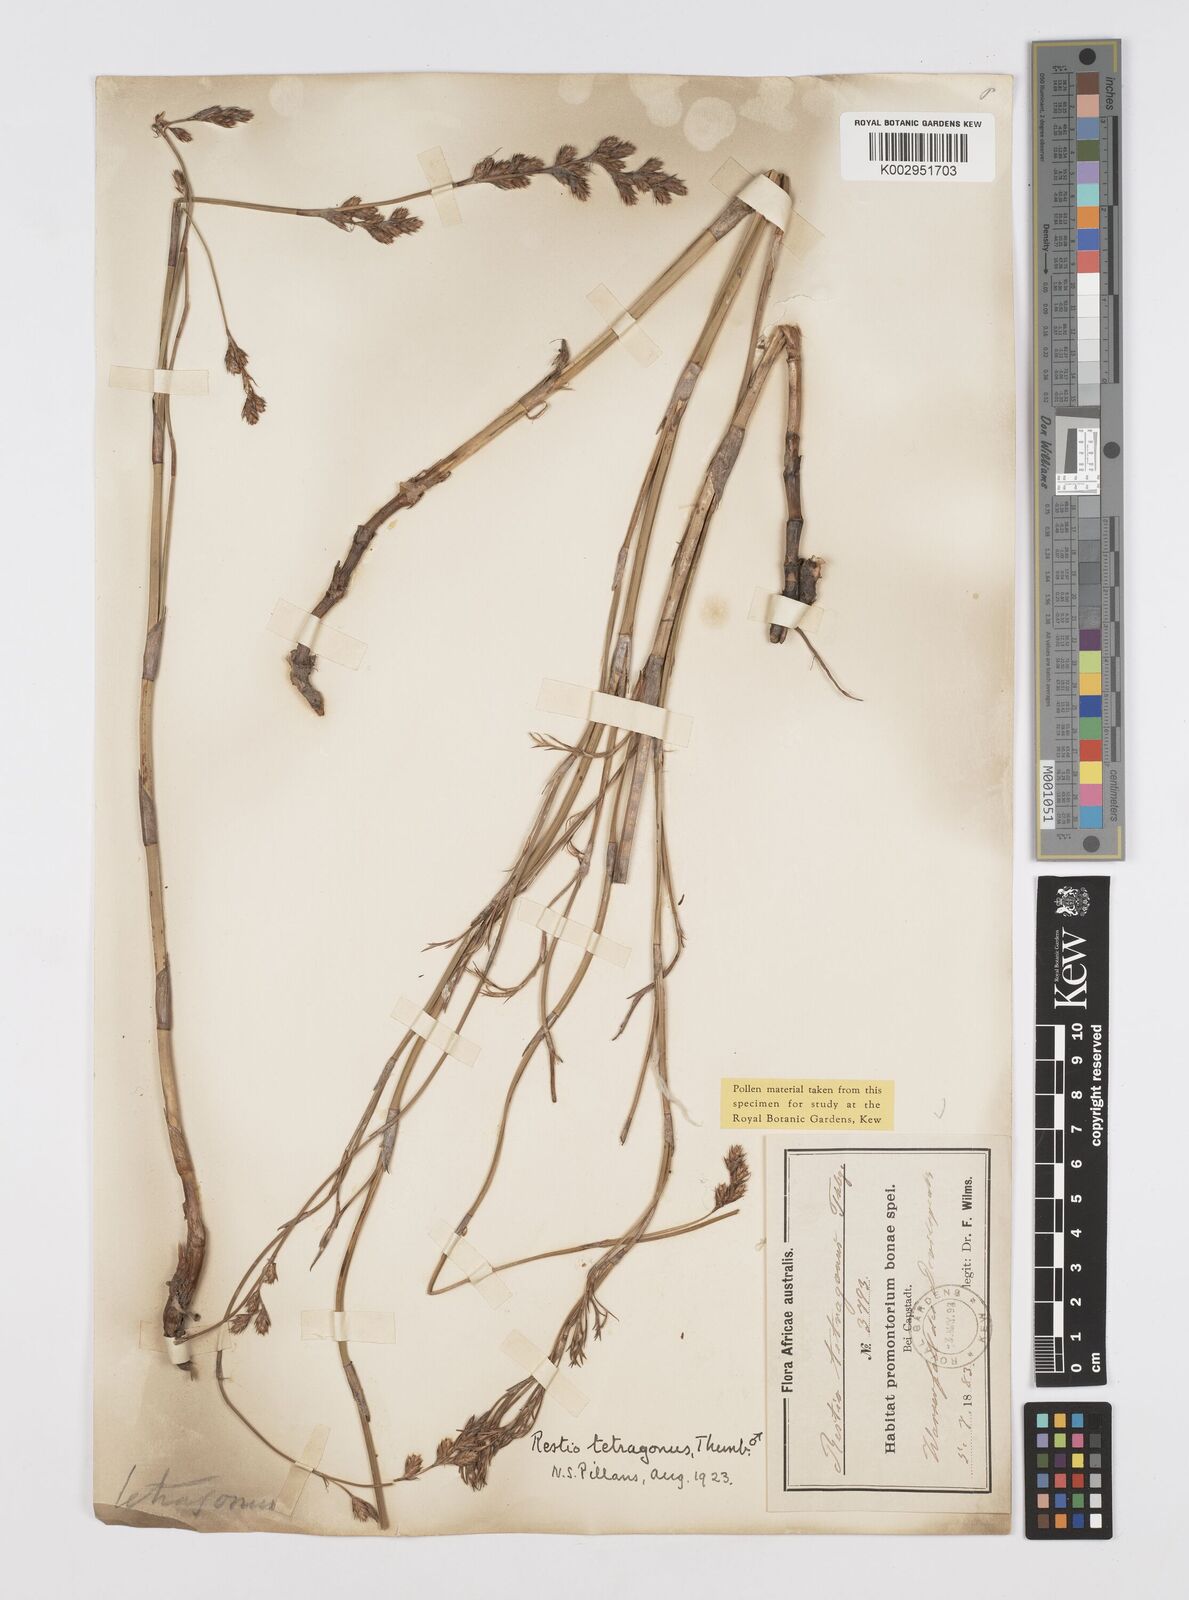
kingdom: Plantae
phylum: Tracheophyta
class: Liliopsida
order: Poales
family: Restionaceae
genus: Restio
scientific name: Restio tetragonus
